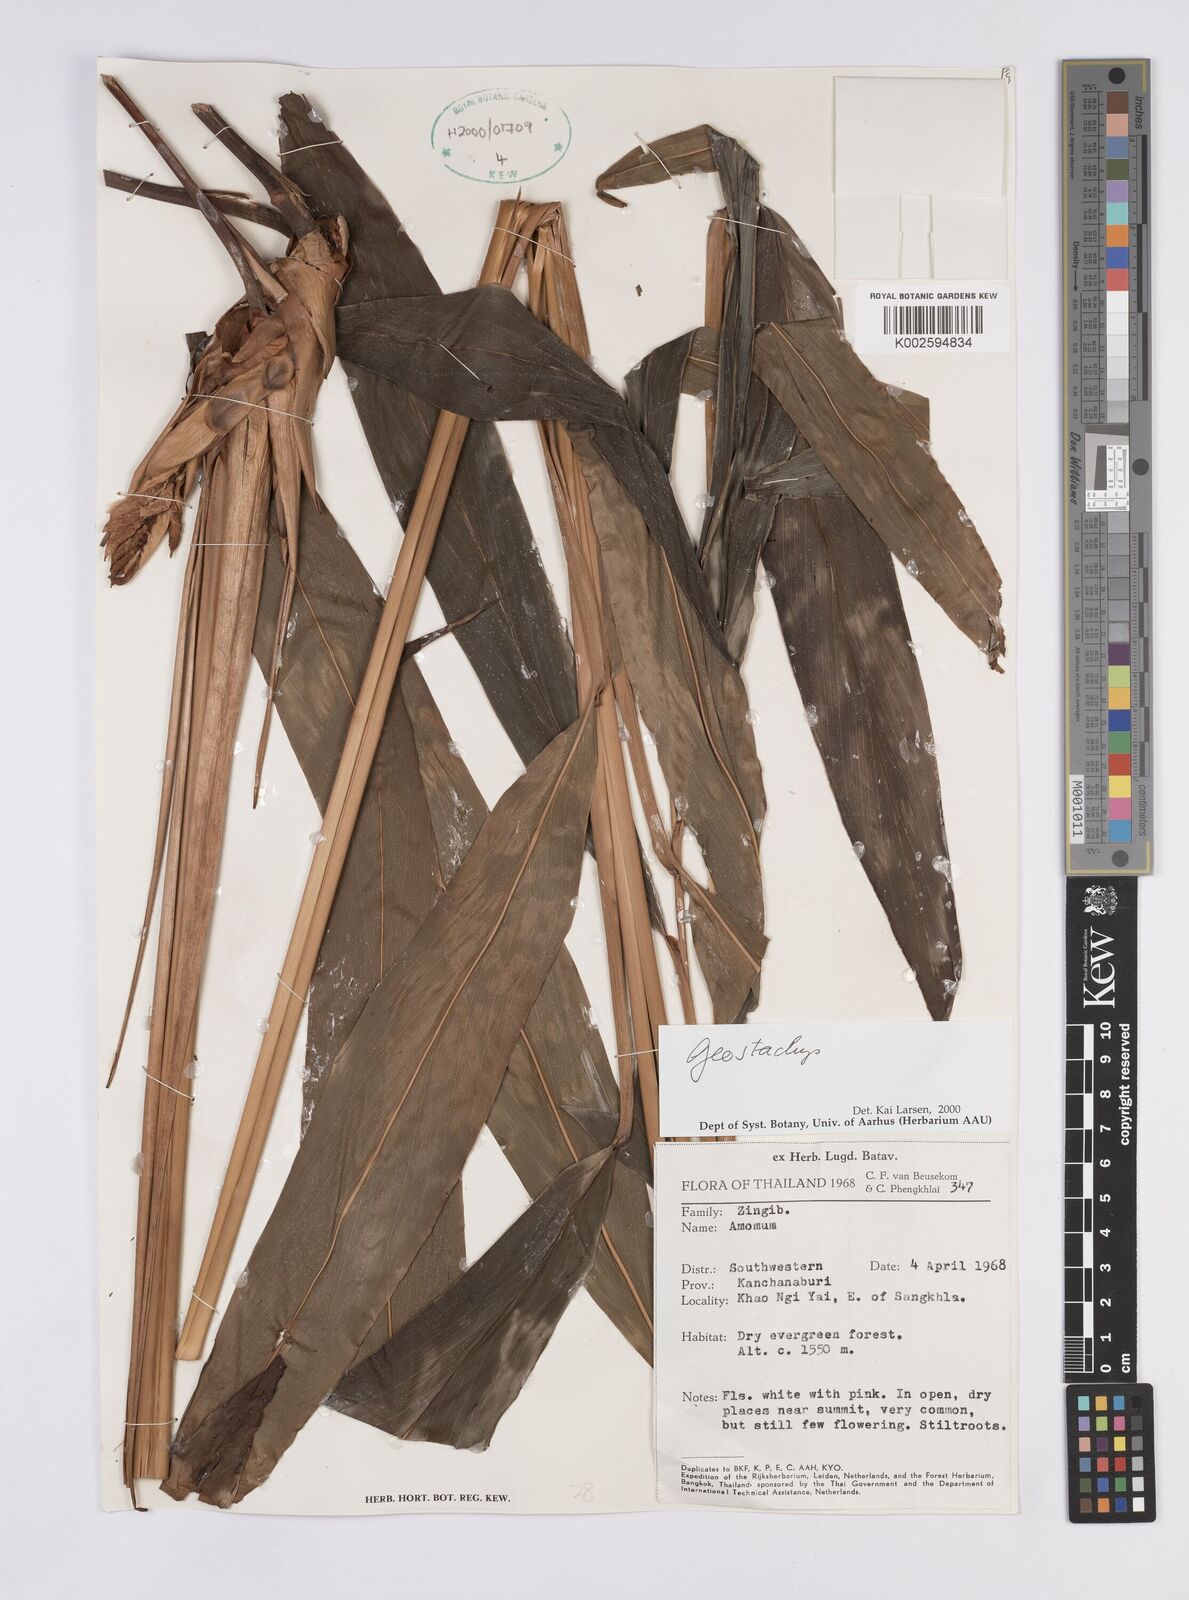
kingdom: Plantae
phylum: Tracheophyta
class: Liliopsida
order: Zingiberales
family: Zingiberaceae
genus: Geostachys
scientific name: Geostachys
